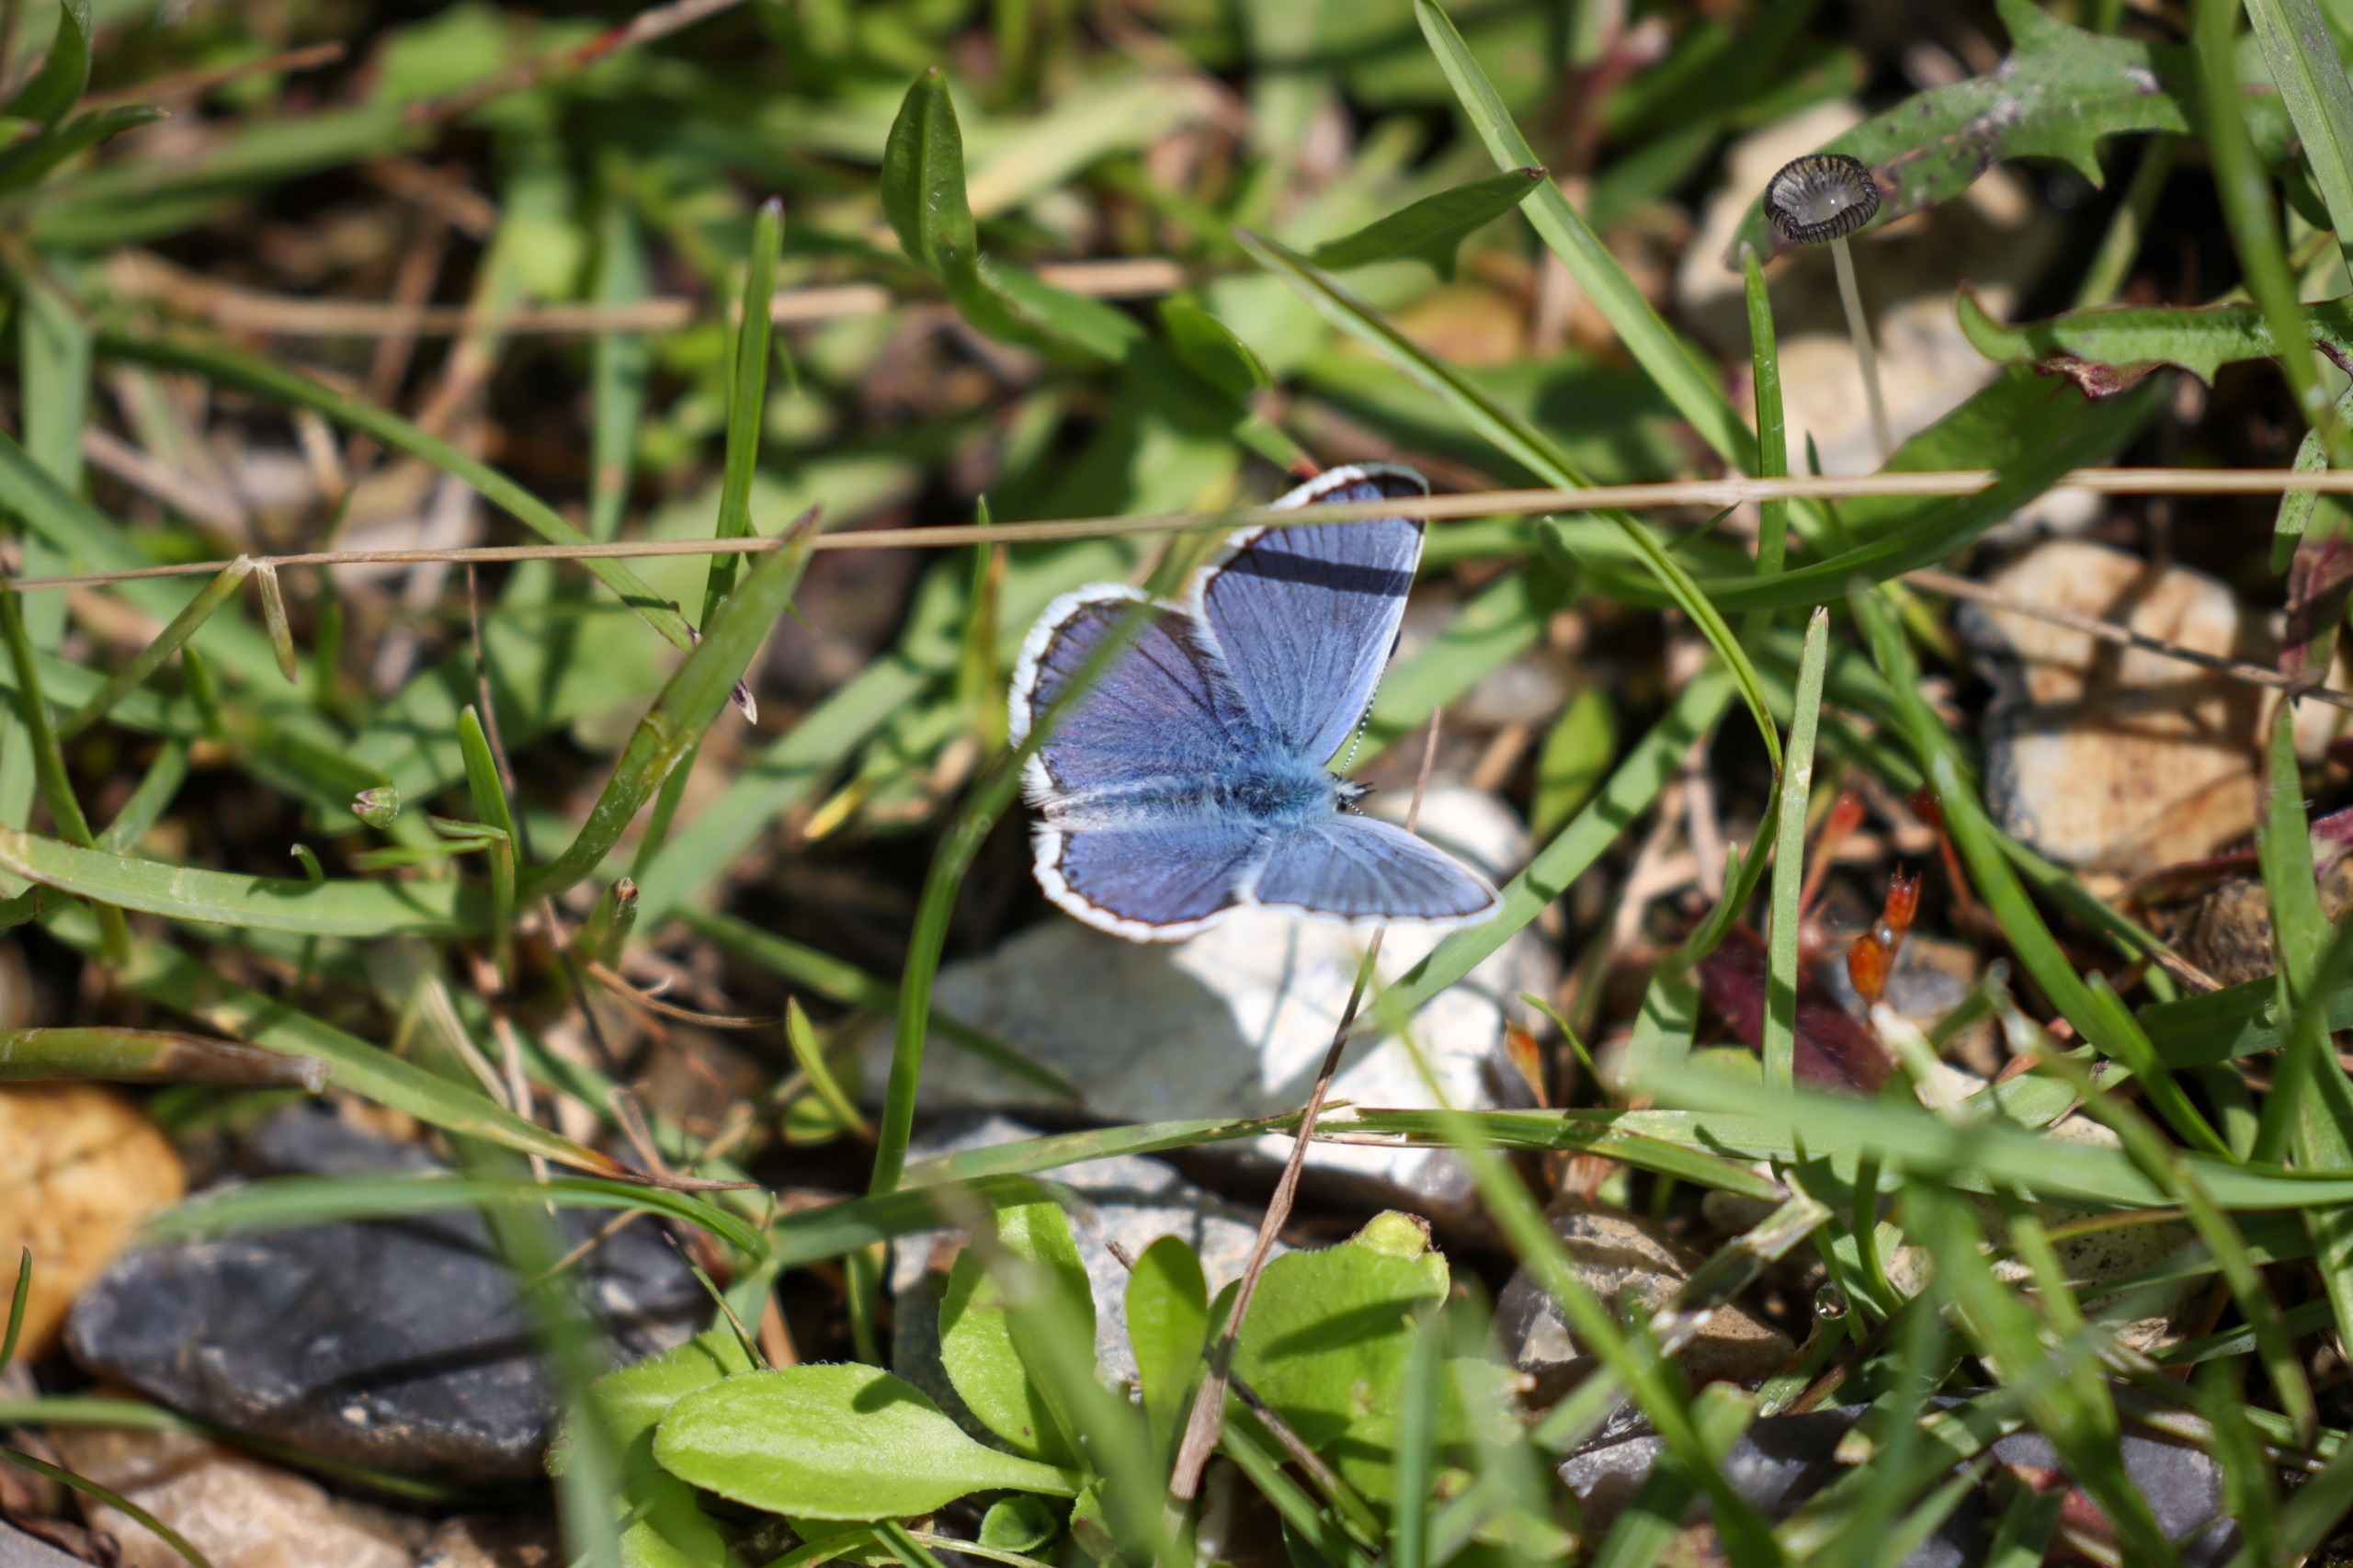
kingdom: Animalia
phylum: Arthropoda
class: Insecta
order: Lepidoptera
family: Lycaenidae
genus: Polyommatus
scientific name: Polyommatus icarus
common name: Almindelig blåfugl
